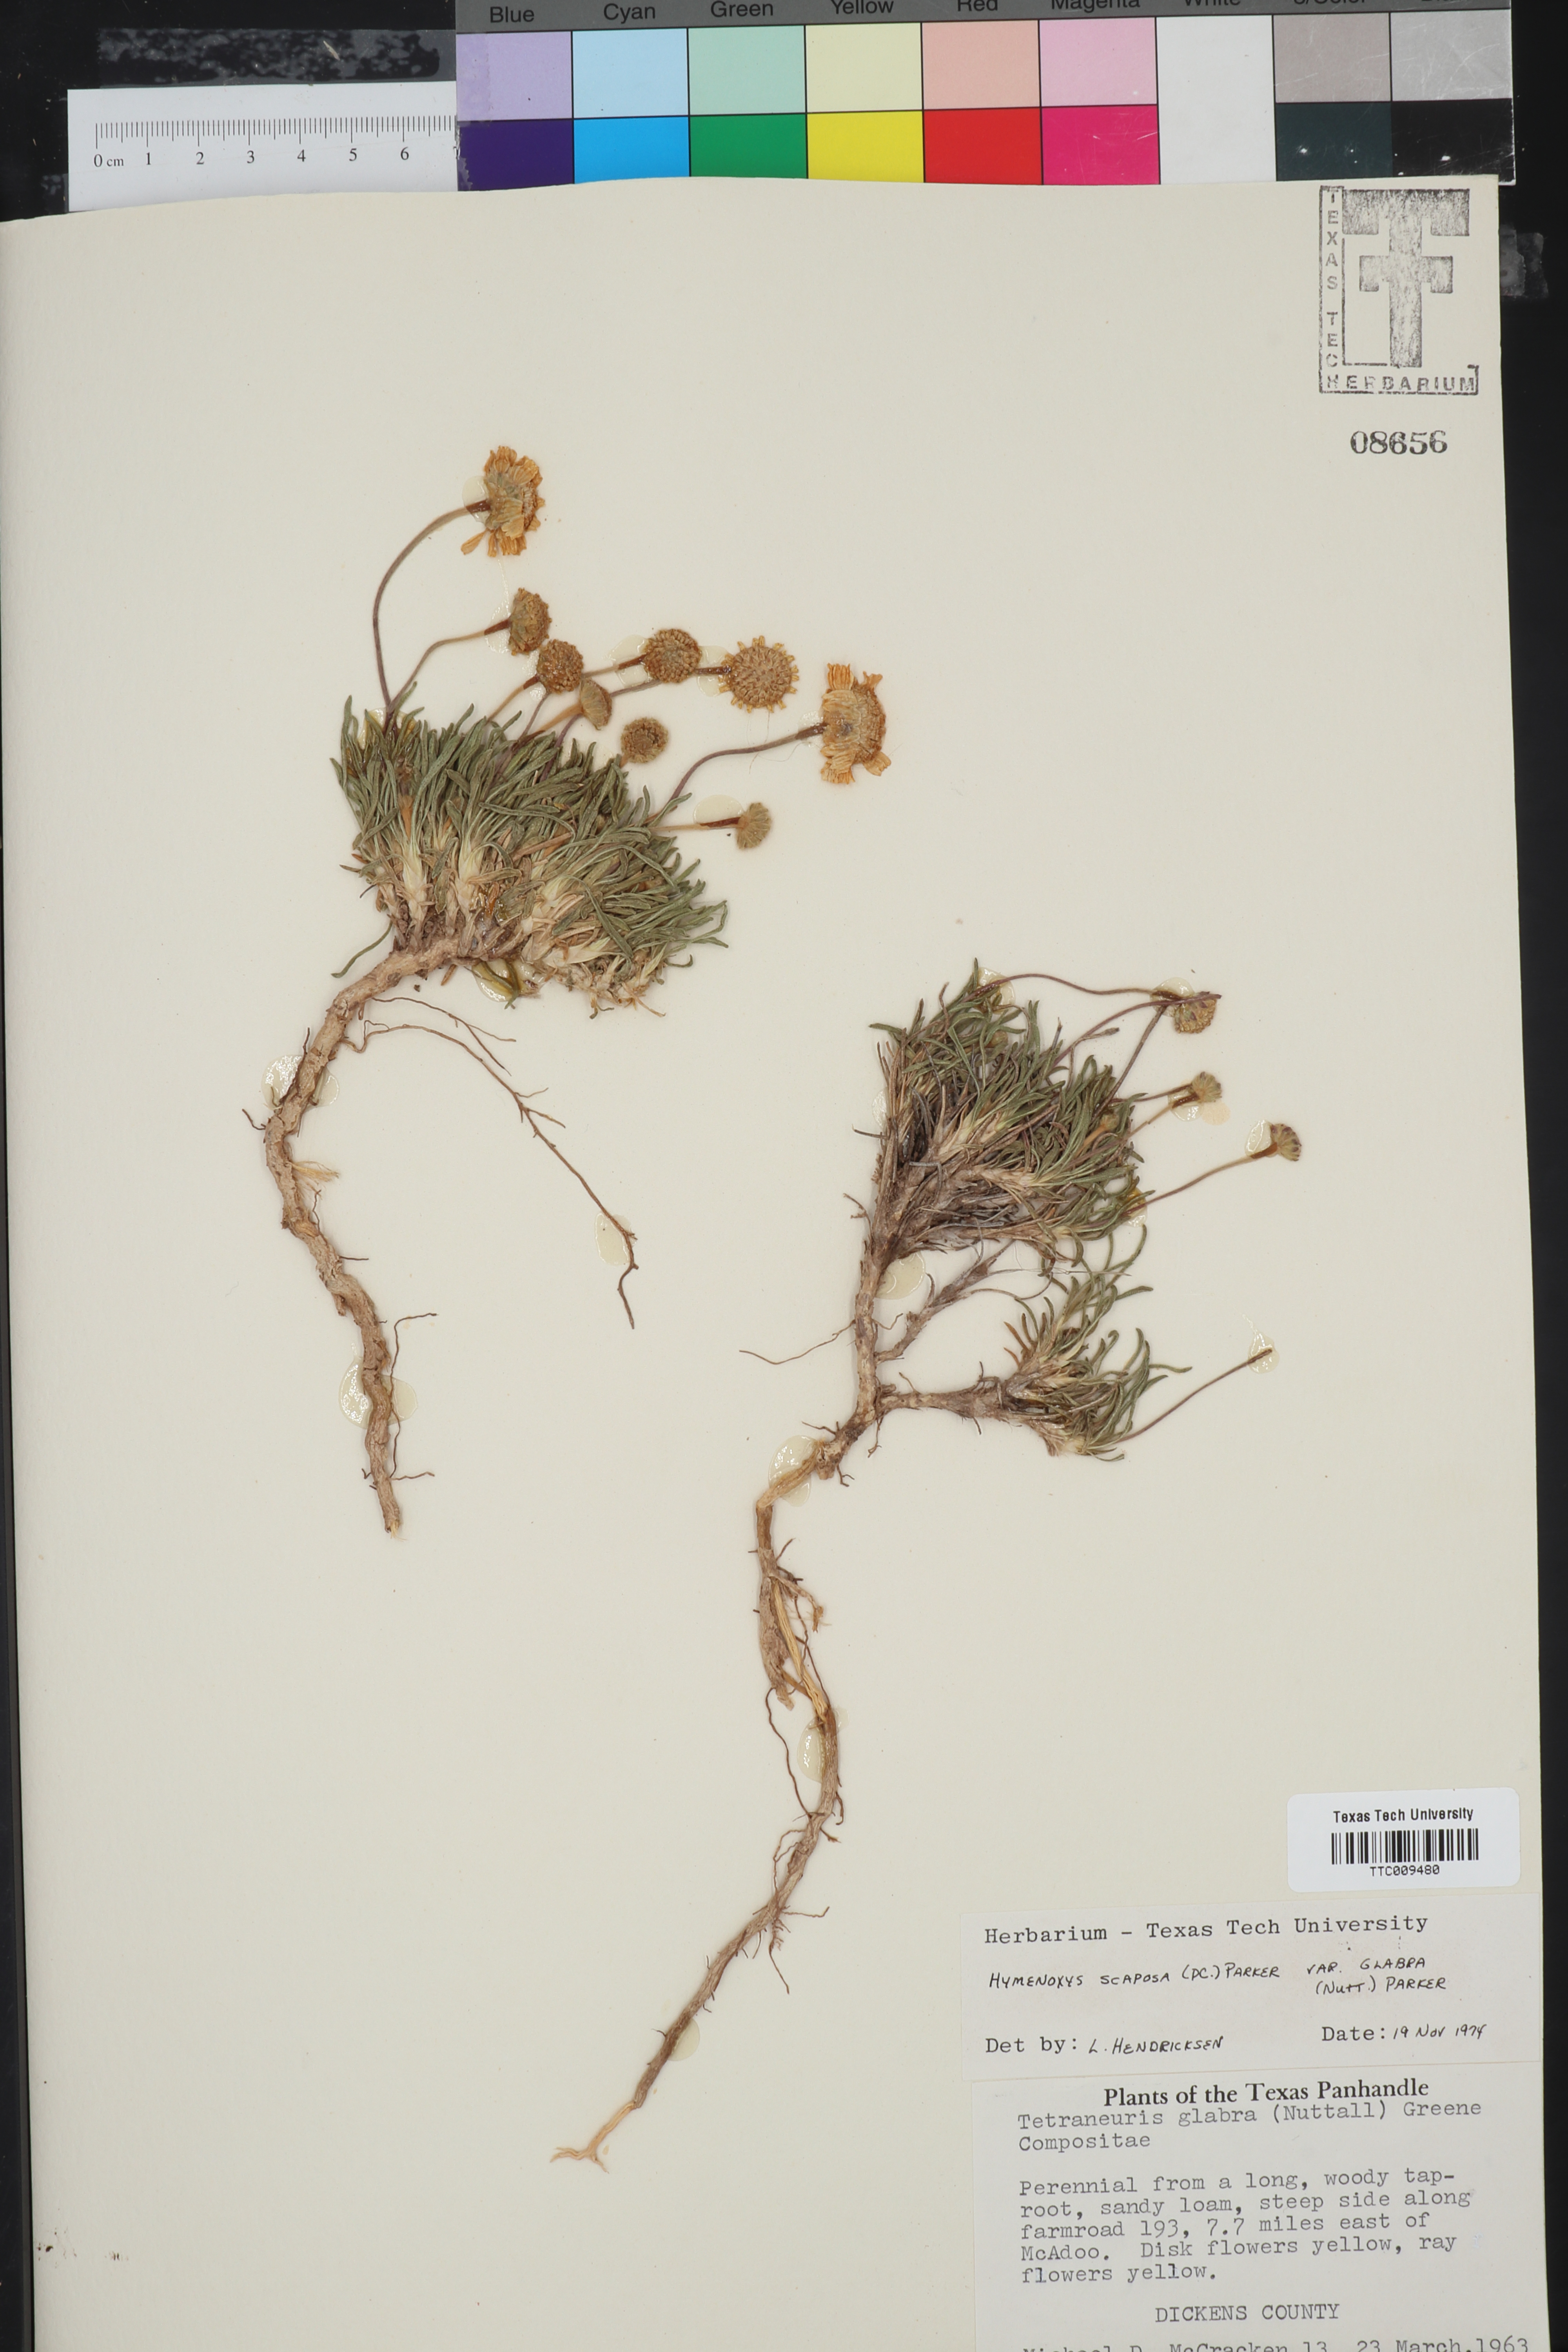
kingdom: Plantae
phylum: Tracheophyta
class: Magnoliopsida
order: Asterales
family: Asteraceae
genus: Tetraneuris
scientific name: Tetraneuris scaposa
